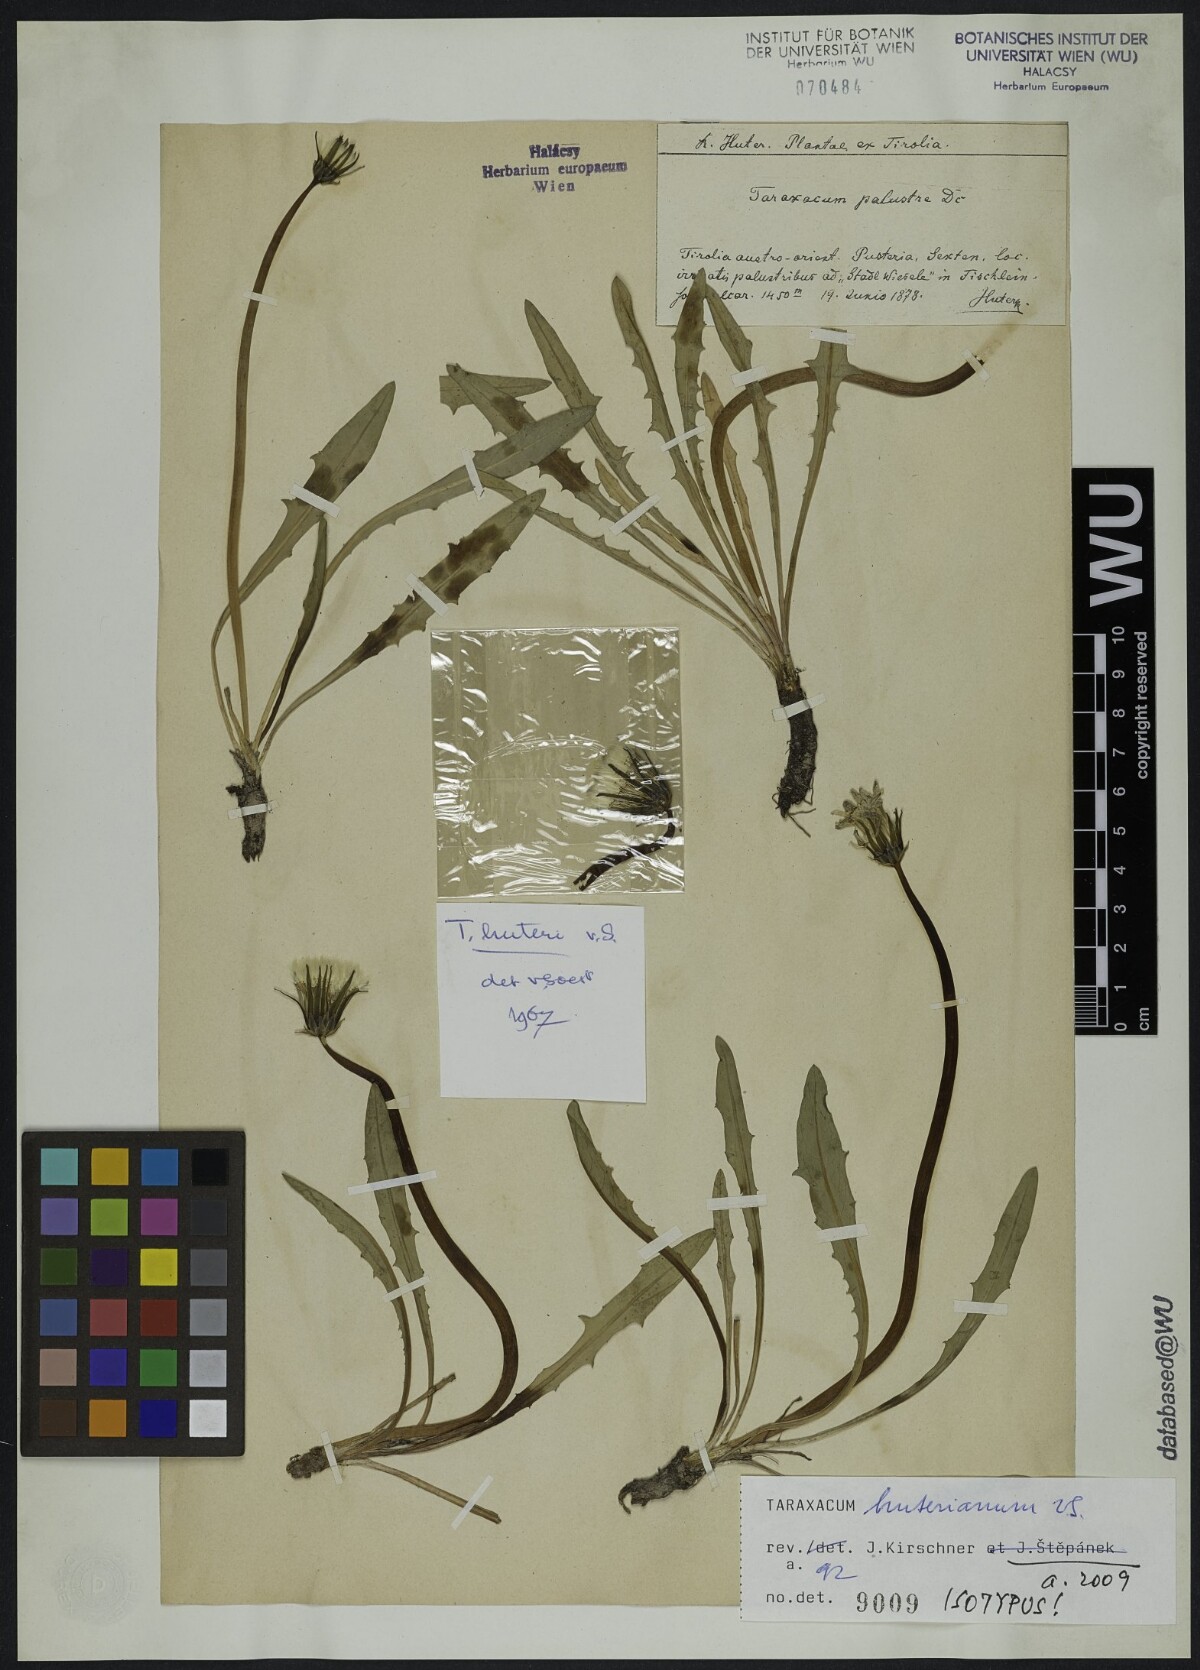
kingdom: Plantae
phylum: Tracheophyta
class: Magnoliopsida
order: Asterales
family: Asteraceae
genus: Taraxacum
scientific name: Taraxacum huterianum
